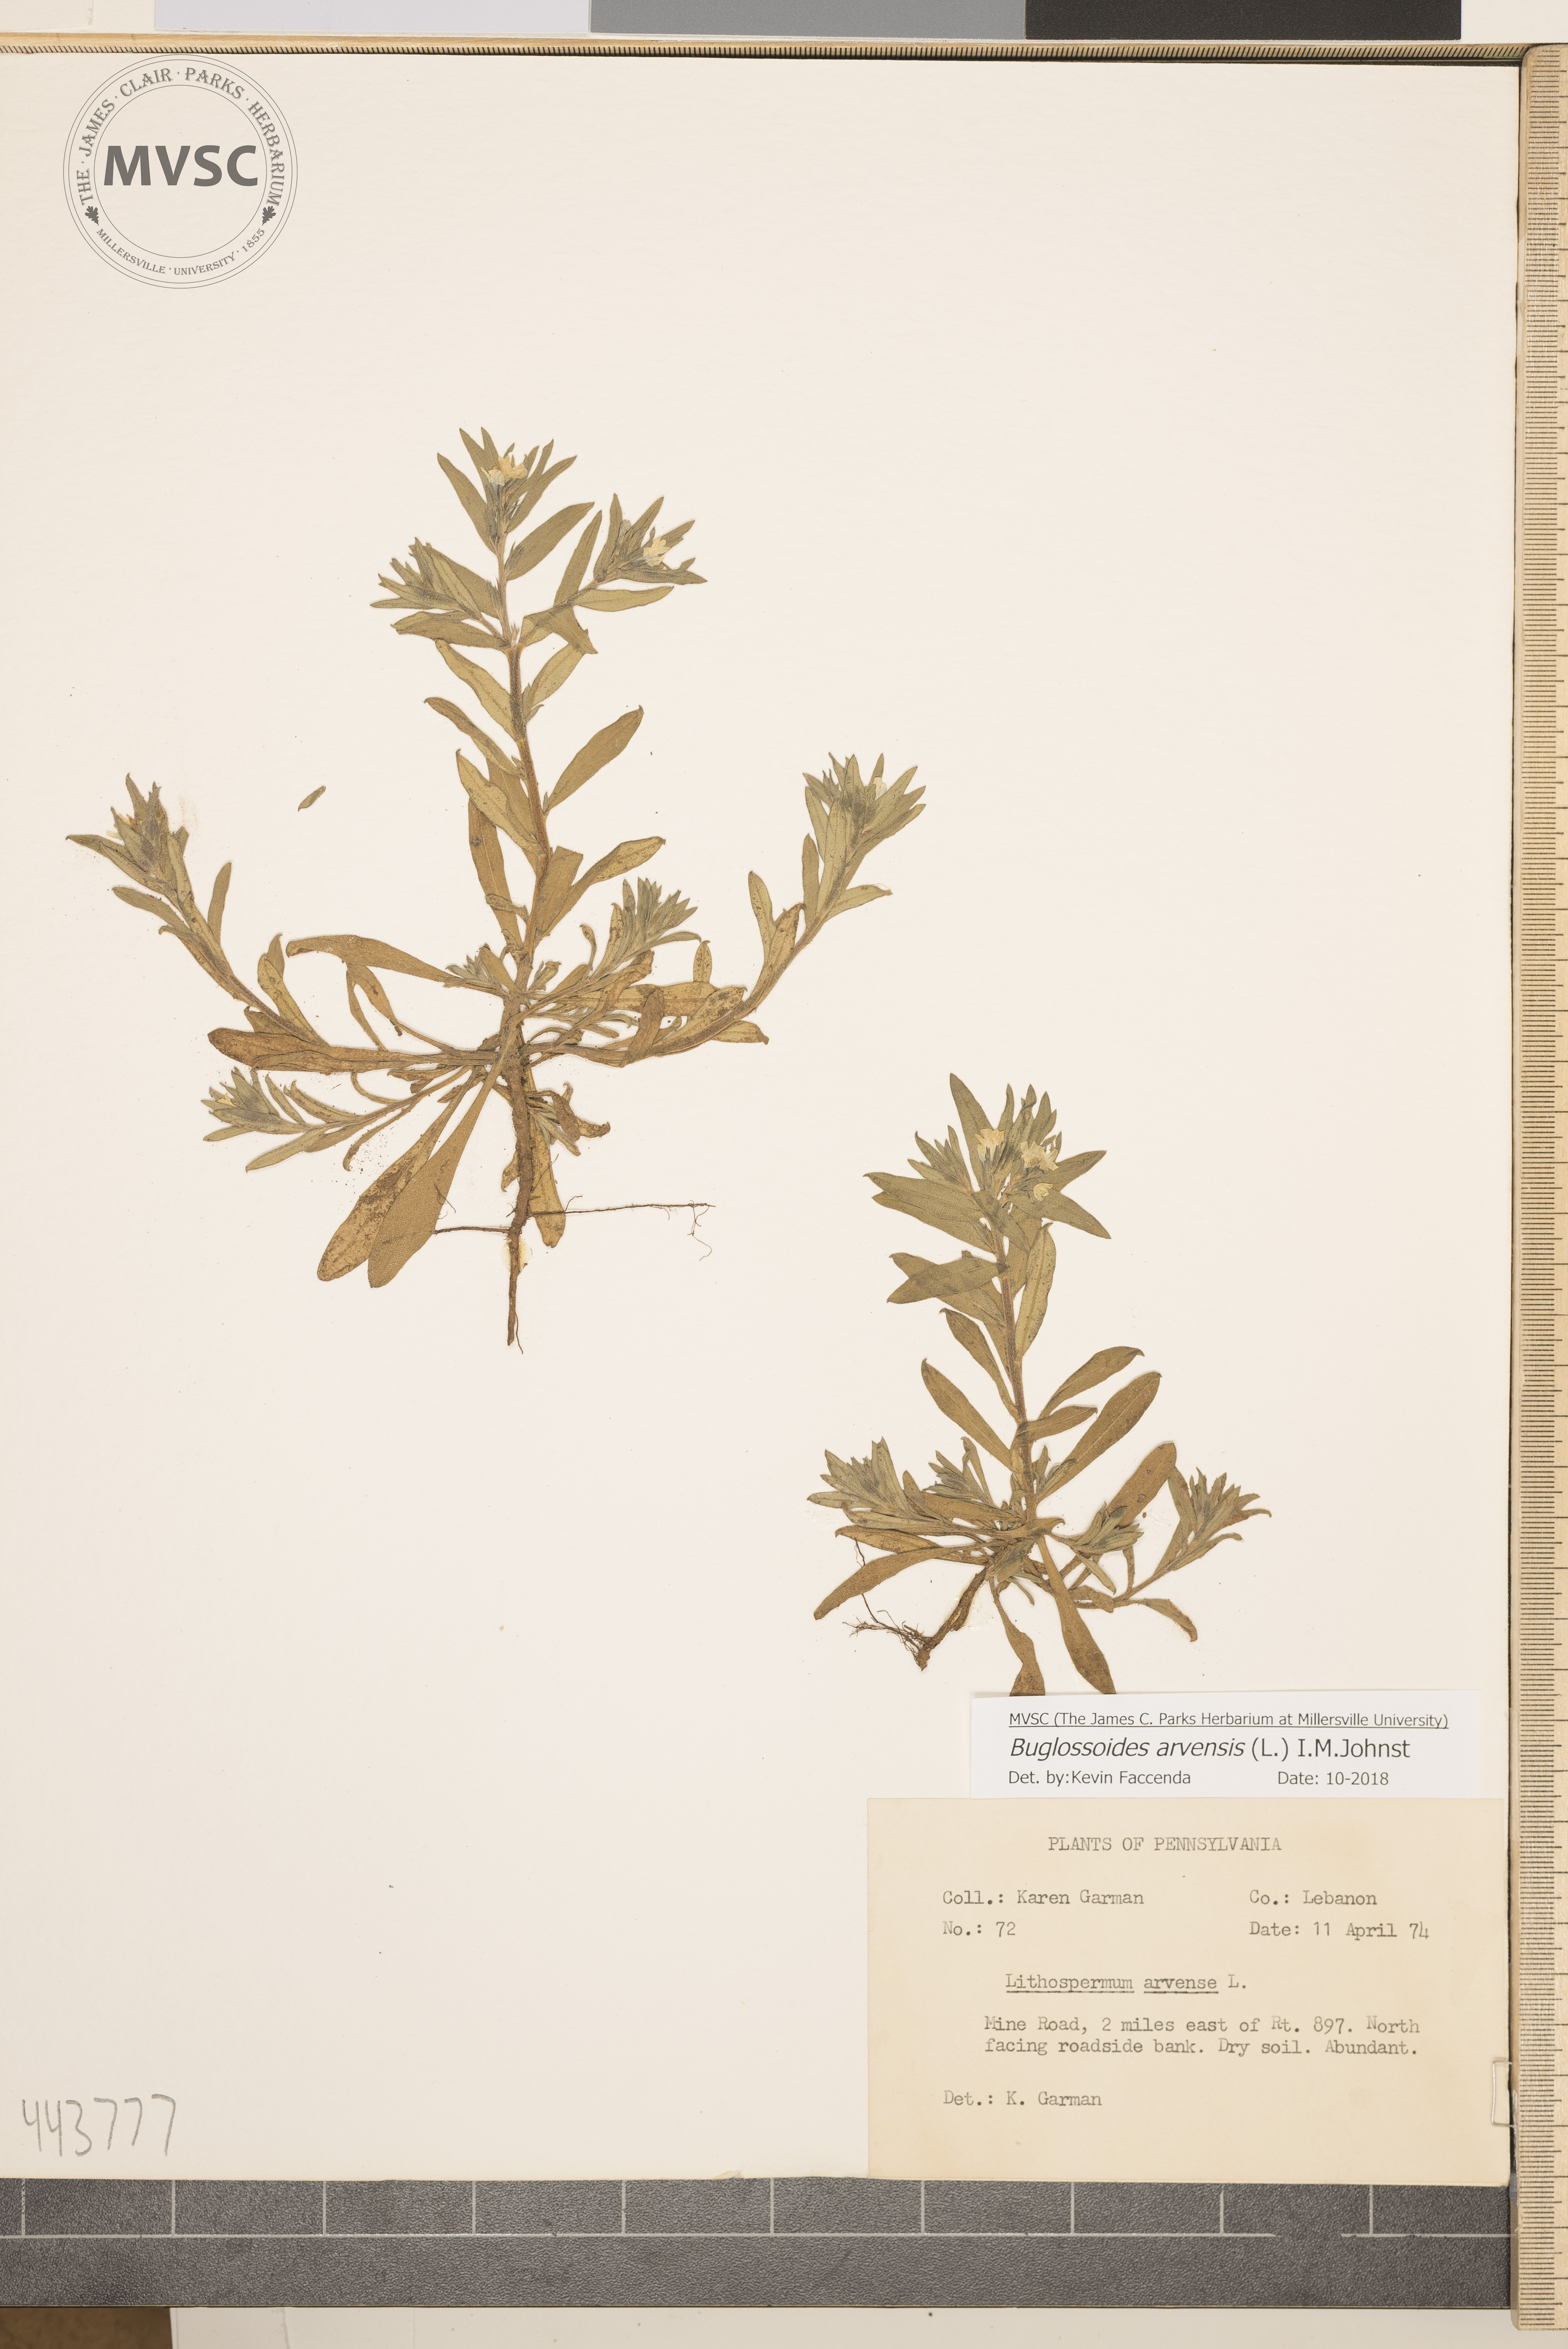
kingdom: Plantae
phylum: Tracheophyta
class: Magnoliopsida
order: Boraginales
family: Boraginaceae
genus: Buglossoides
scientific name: Buglossoides arvensis
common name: Corn gromwell
